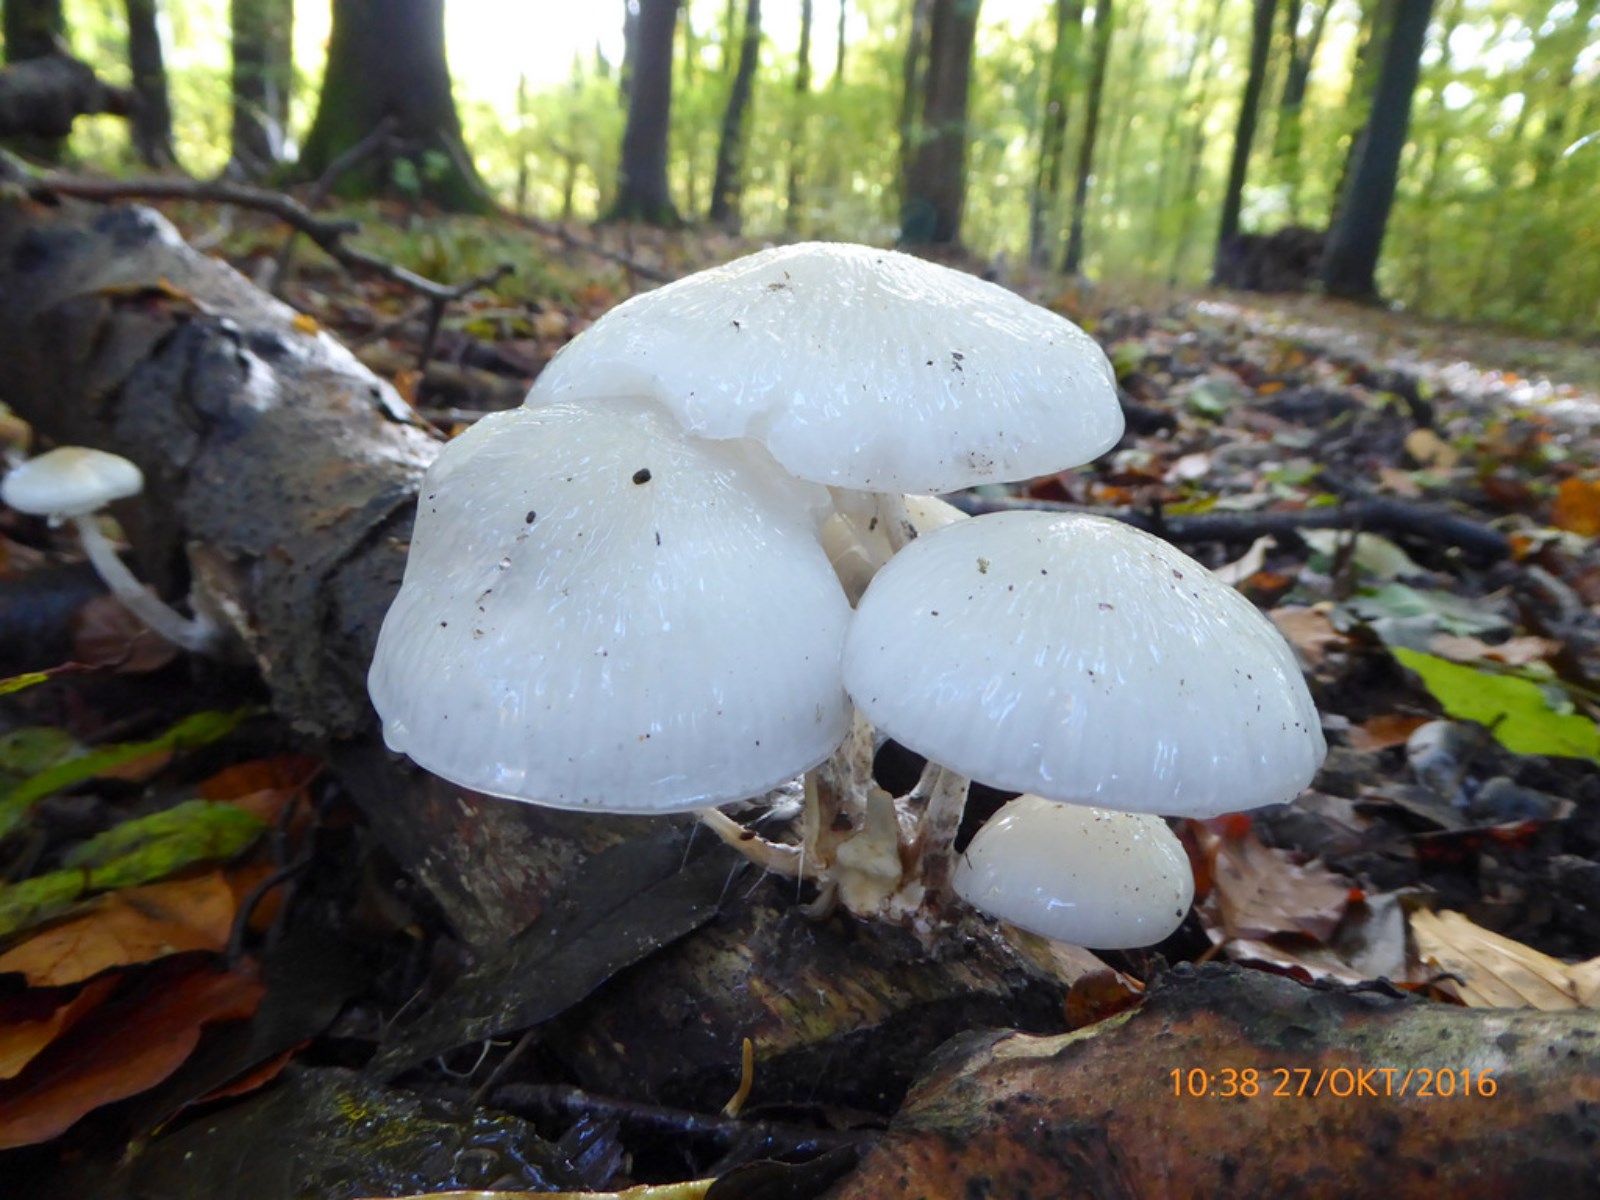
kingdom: Fungi
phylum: Basidiomycota
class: Agaricomycetes
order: Agaricales
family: Physalacriaceae
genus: Mucidula
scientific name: Mucidula mucida
